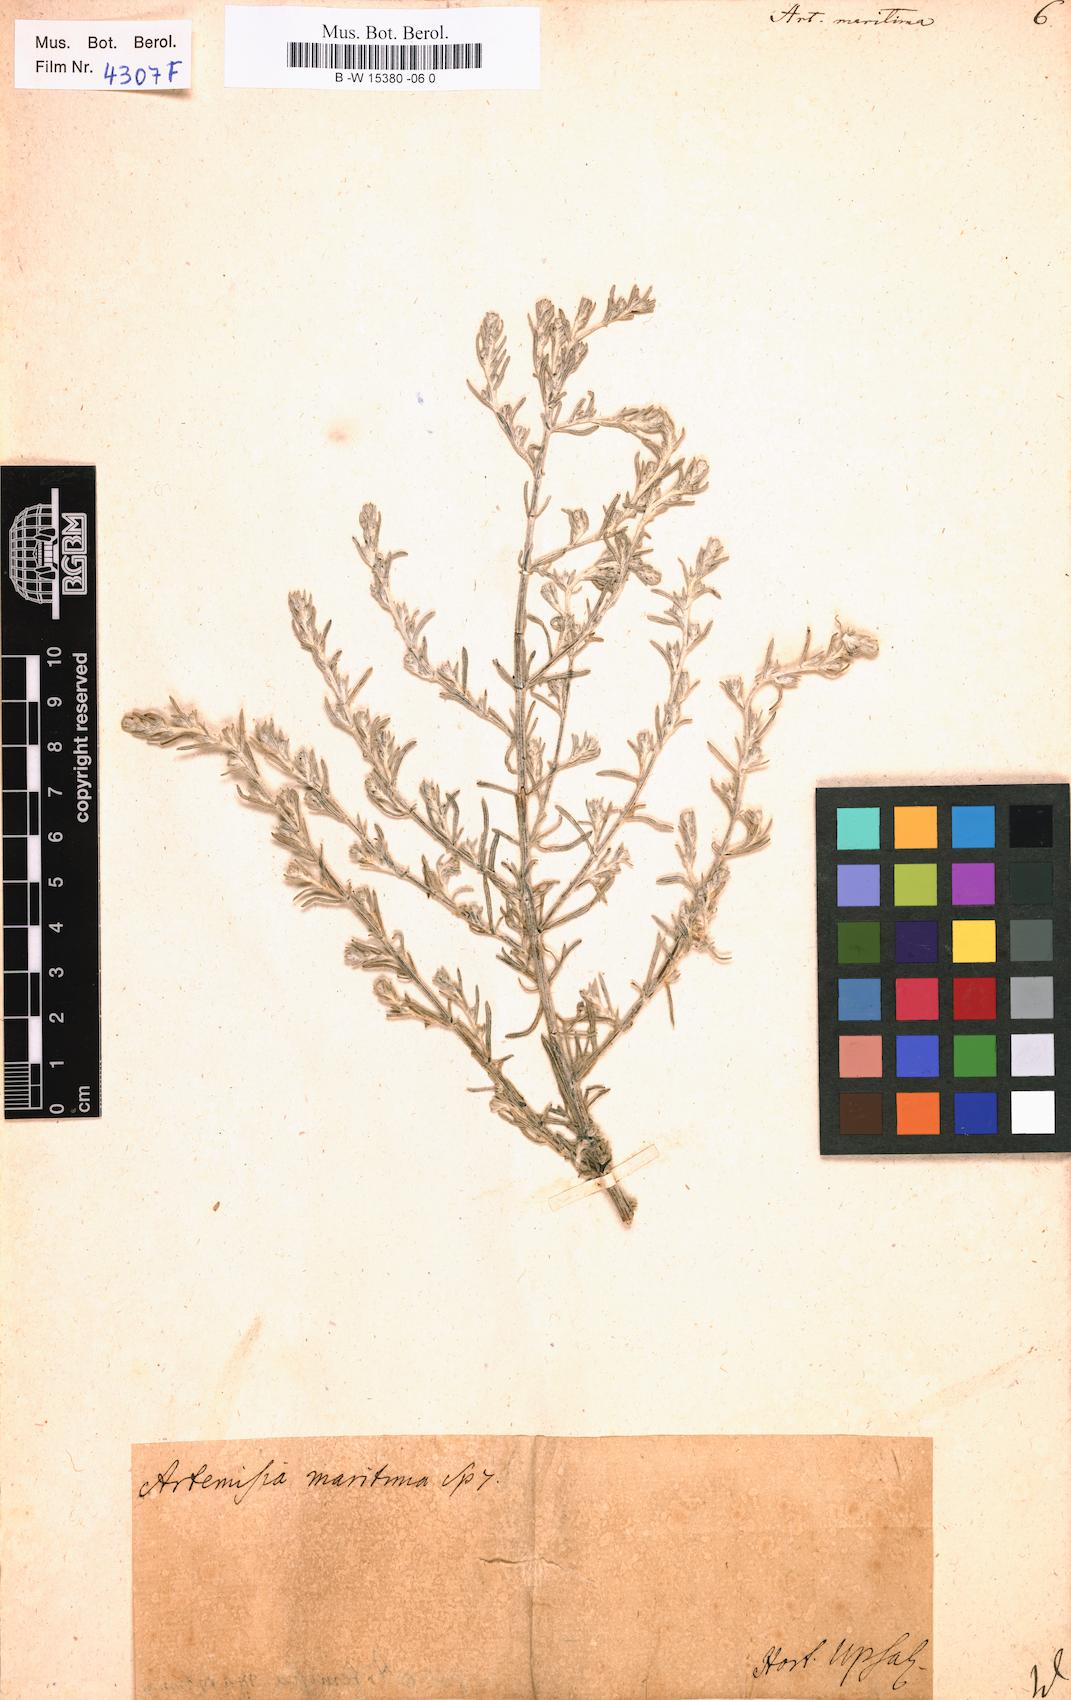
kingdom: Plantae
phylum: Tracheophyta
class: Magnoliopsida
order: Asterales
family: Asteraceae
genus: Artemisia
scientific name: Artemisia maritima
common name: Wormseed
